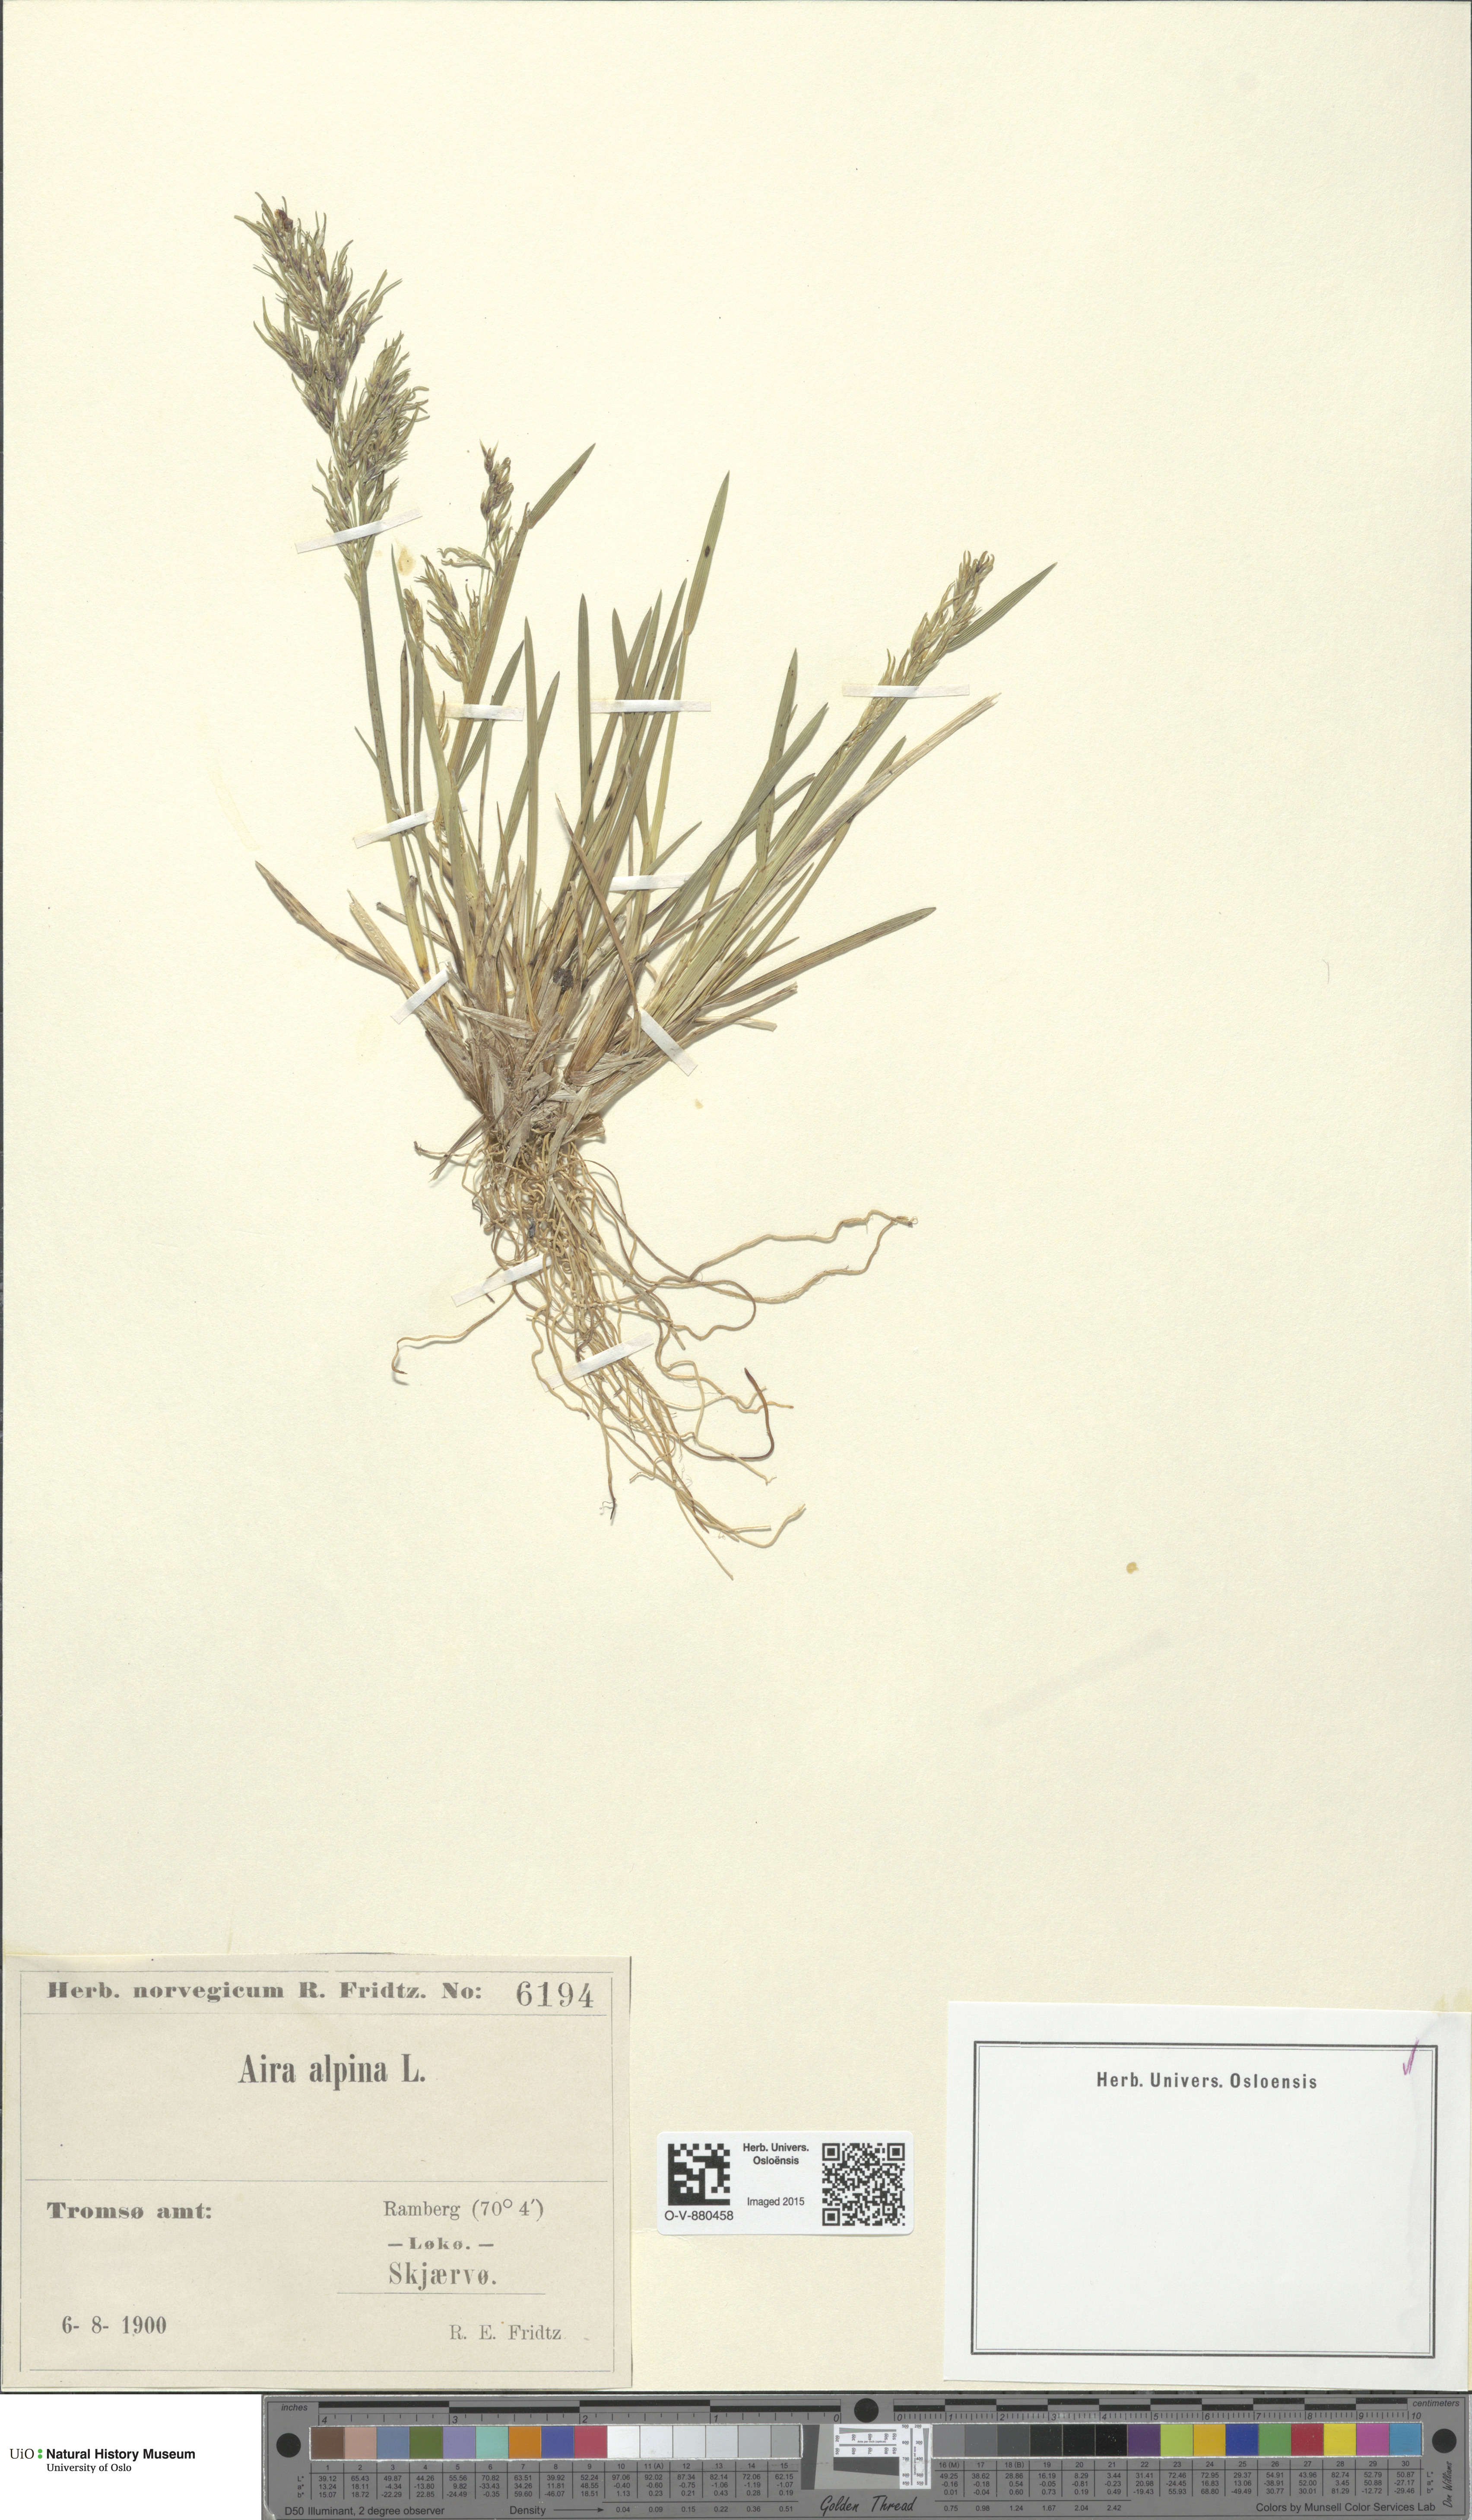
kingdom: Plantae
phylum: Tracheophyta
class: Liliopsida
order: Poales
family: Poaceae
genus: Deschampsia
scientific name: Deschampsia cespitosa
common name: Tufted hair-grass
